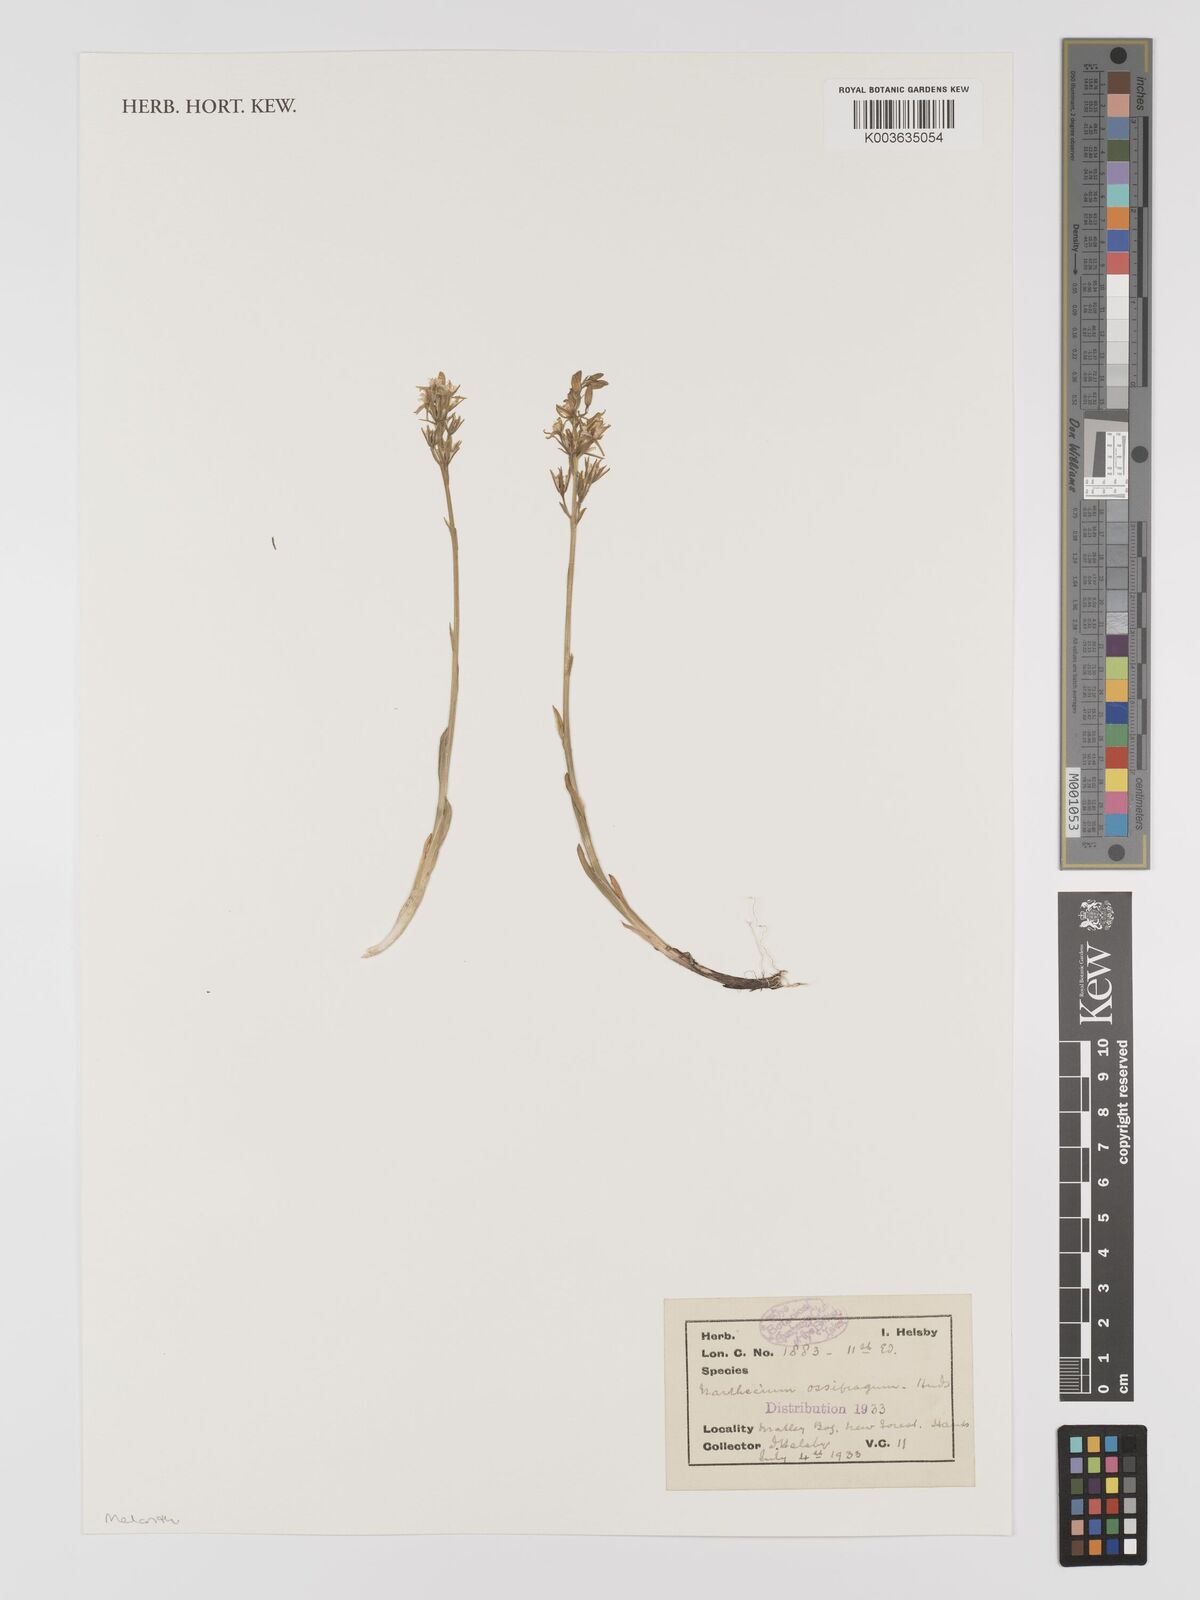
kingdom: Plantae
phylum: Tracheophyta
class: Liliopsida
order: Dioscoreales
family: Nartheciaceae
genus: Narthecium
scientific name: Narthecium
